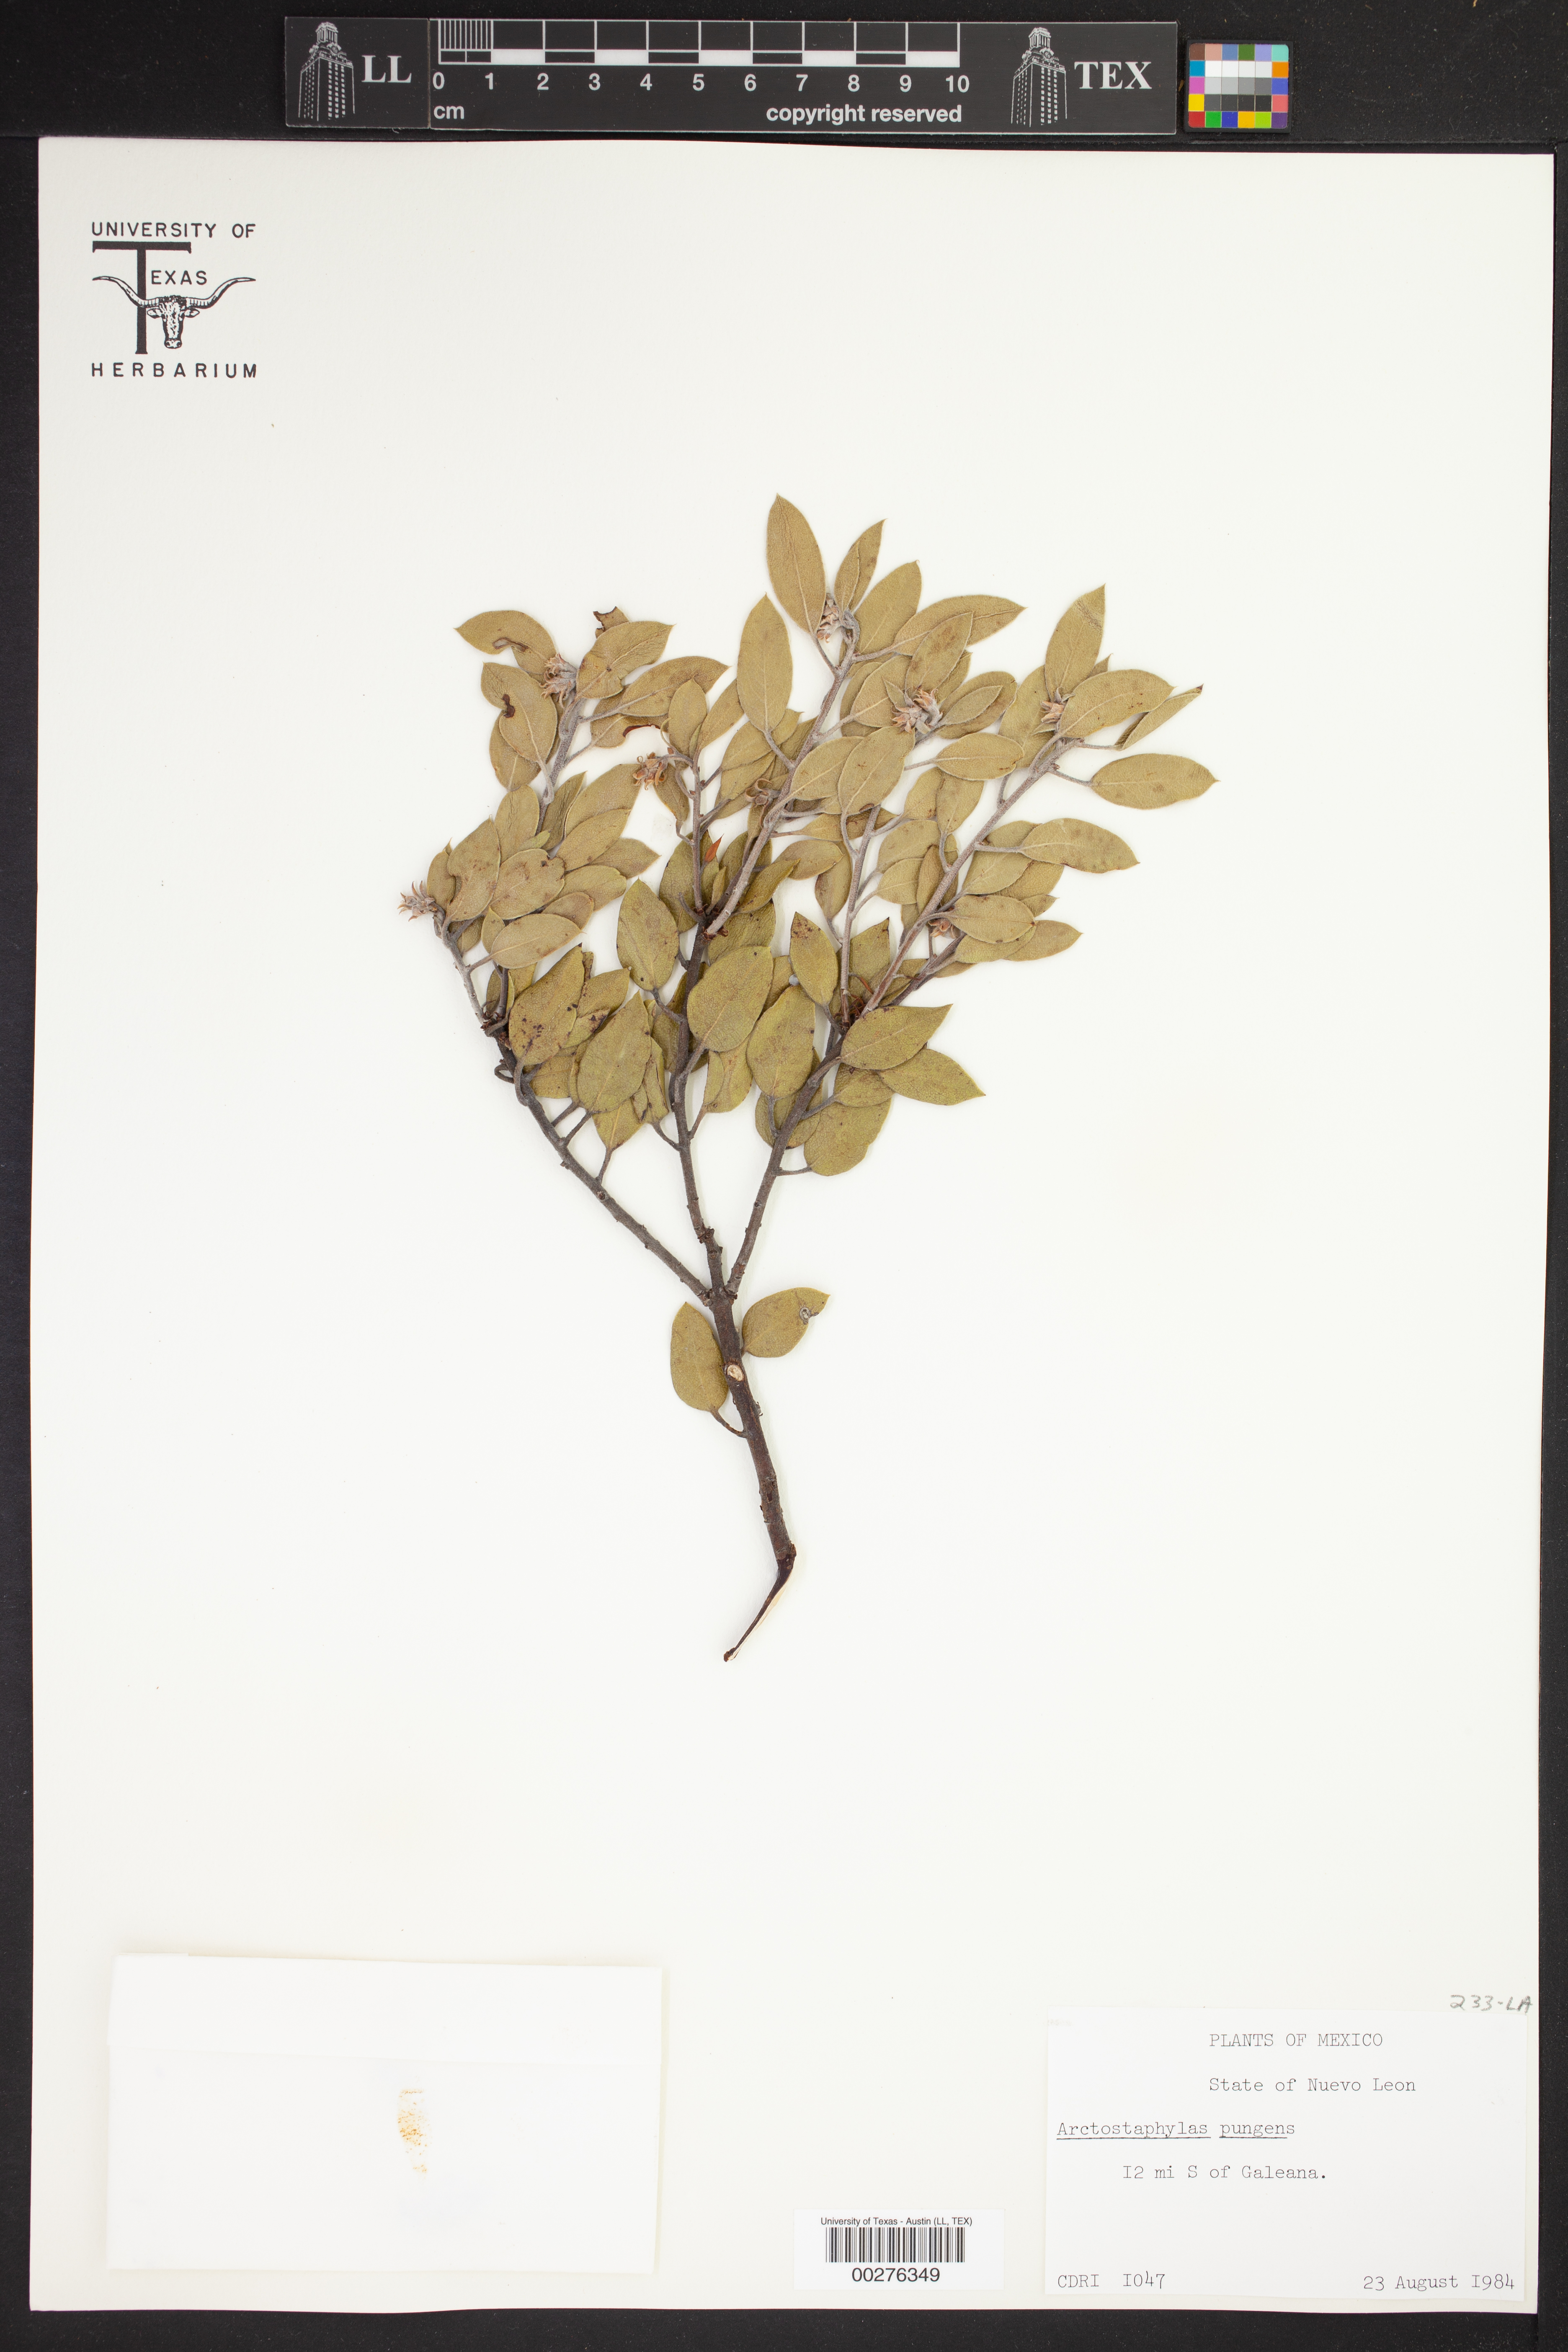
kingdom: Plantae
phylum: Tracheophyta
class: Magnoliopsida
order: Ericales
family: Ericaceae
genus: Arctostaphylos
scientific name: Arctostaphylos pungens
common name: Mexican manzanita
